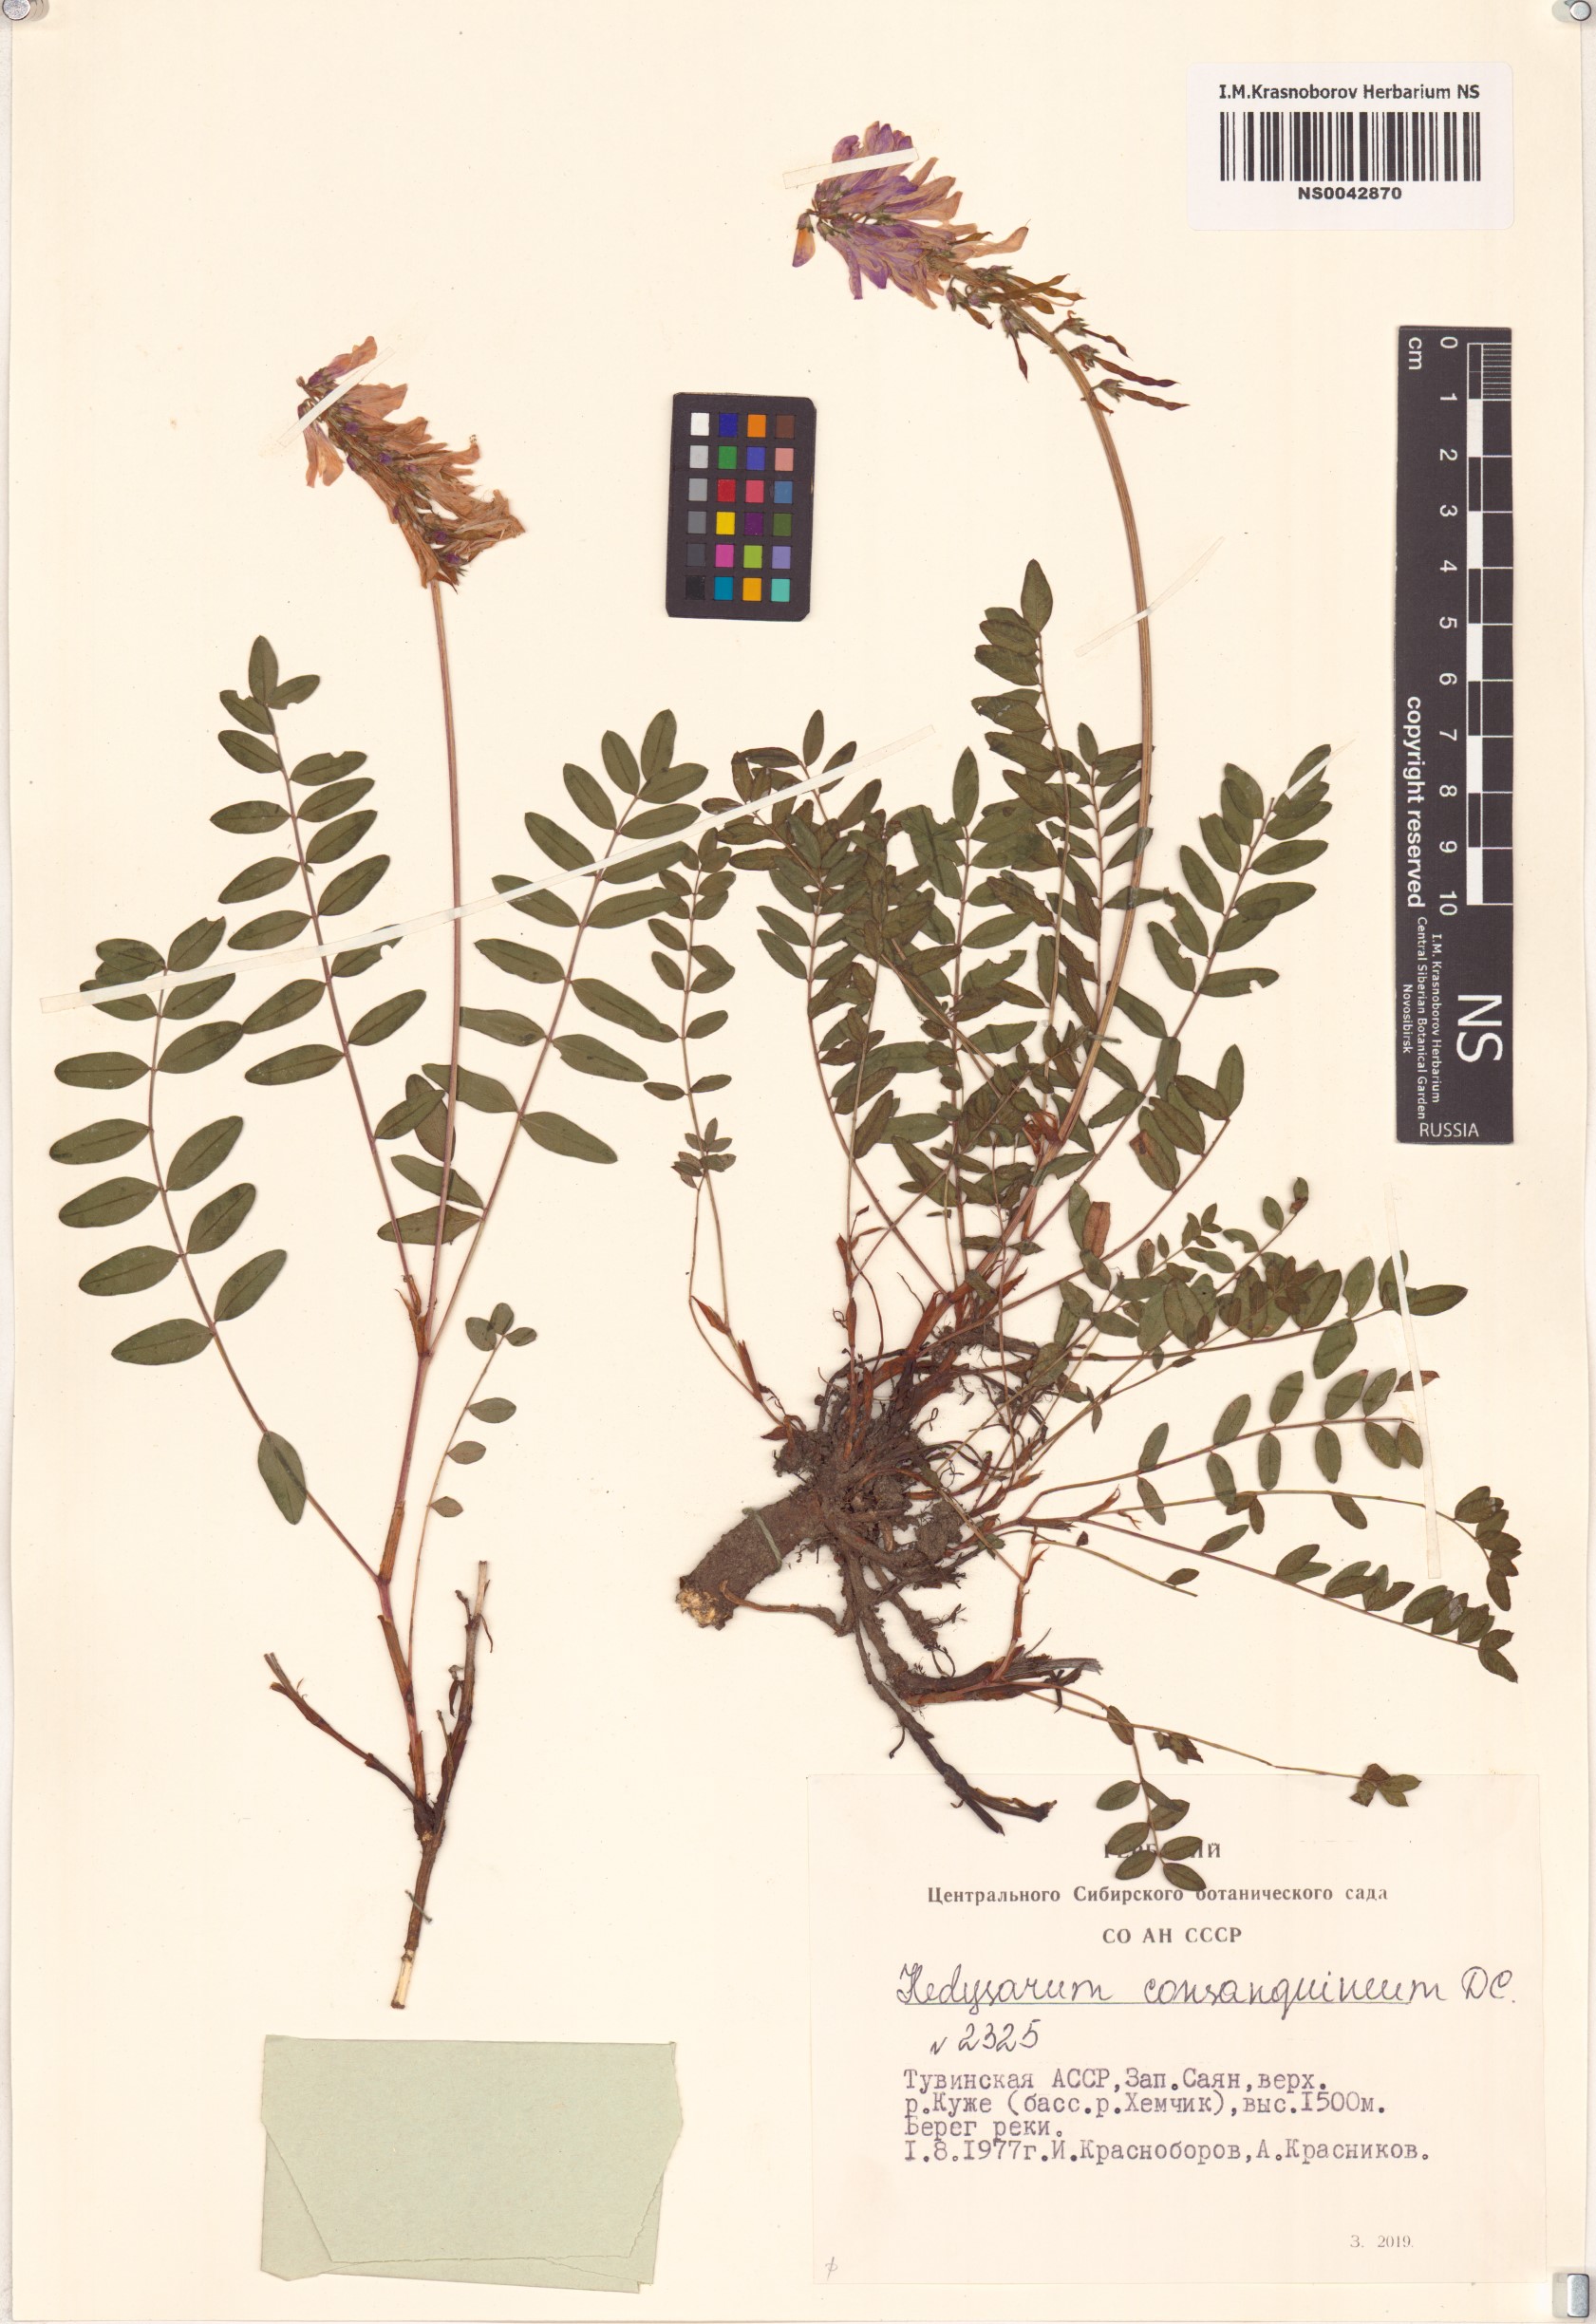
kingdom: Plantae
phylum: Tracheophyta
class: Magnoliopsida
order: Fabales
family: Fabaceae
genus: Hedysarum
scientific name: Hedysarum consanguineum
